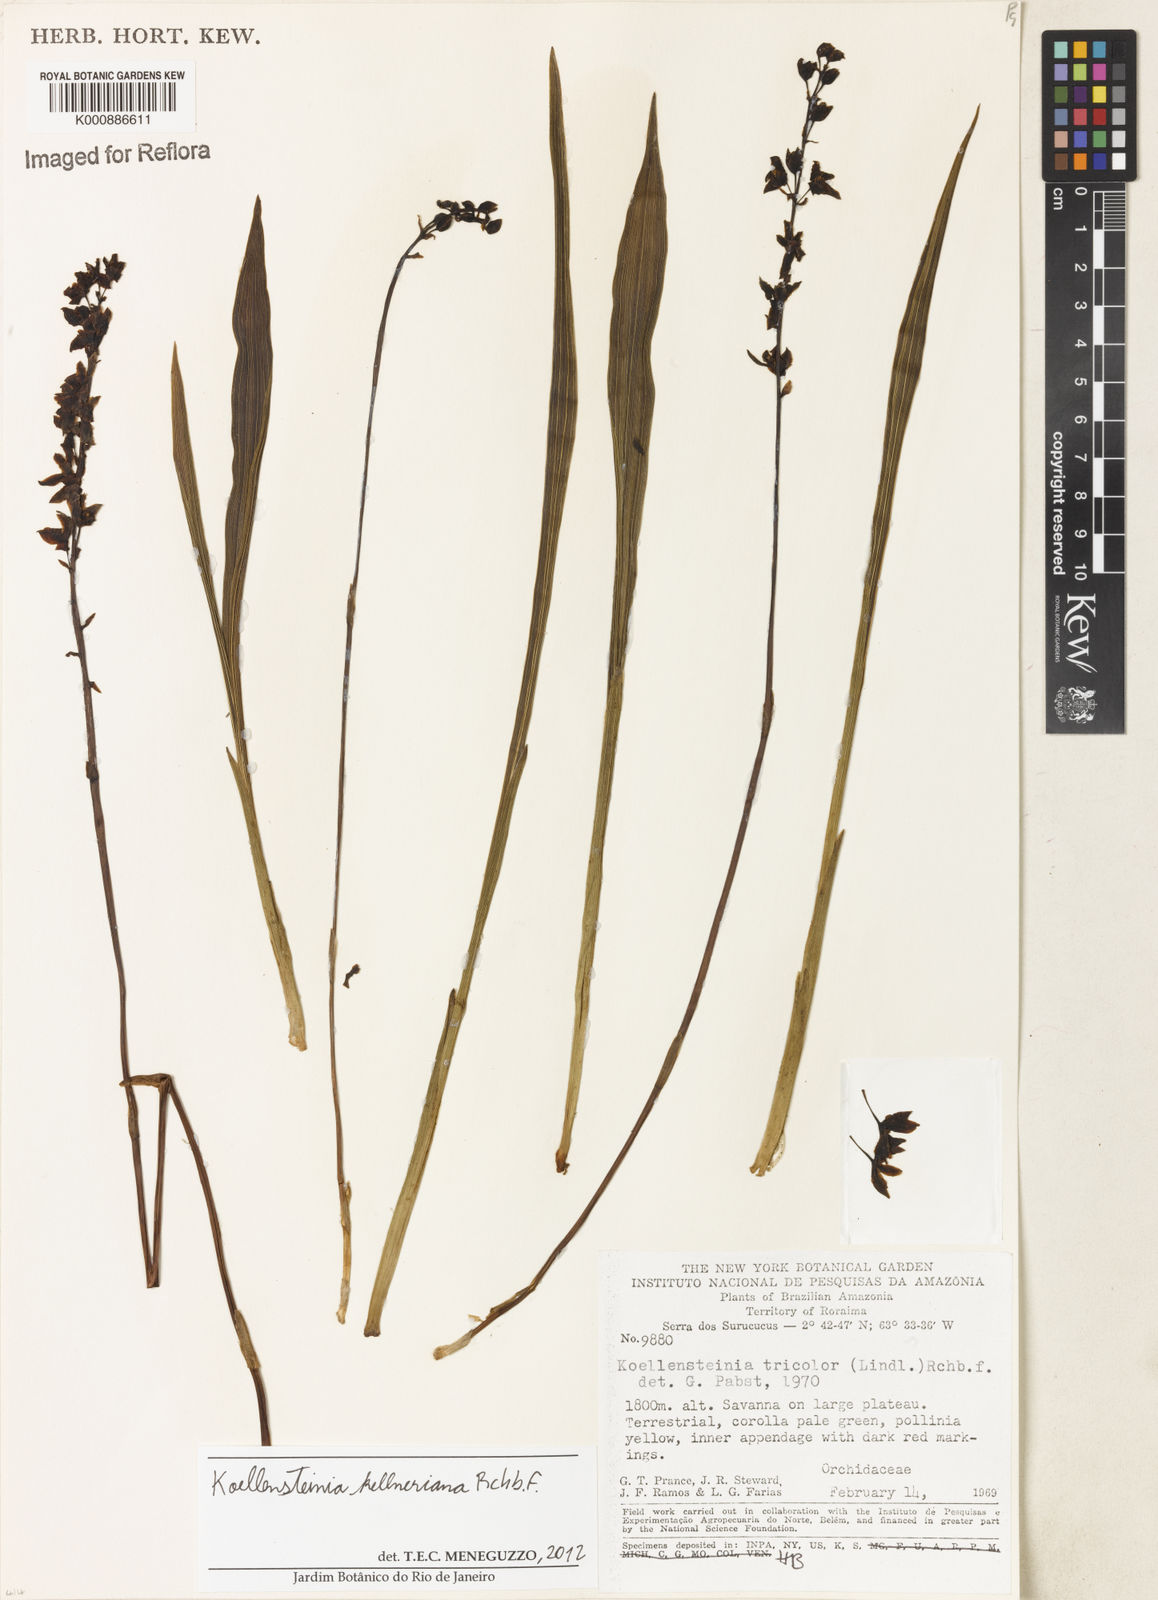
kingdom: Plantae
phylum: Tracheophyta
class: Liliopsida
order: Asparagales
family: Orchidaceae
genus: Koellensteinia
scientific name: Koellensteinia kellneriana
